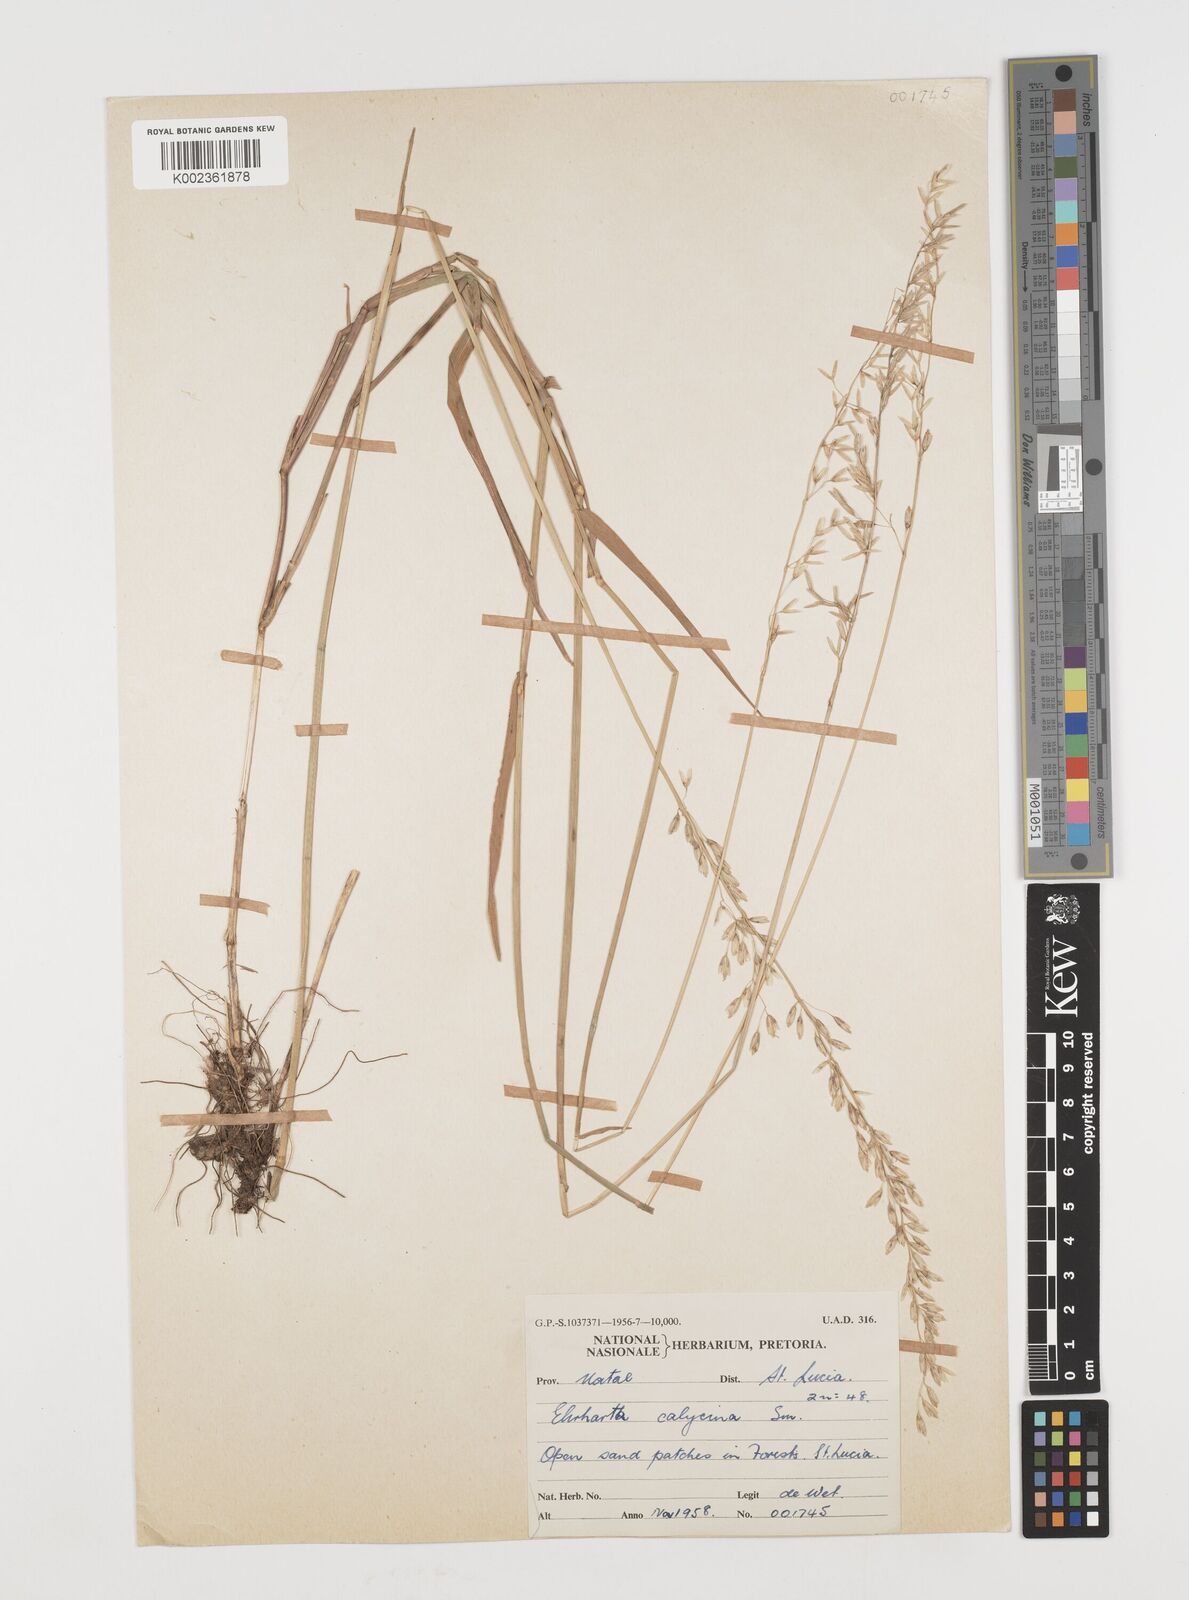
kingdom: Plantae
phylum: Tracheophyta
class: Liliopsida
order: Poales
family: Poaceae
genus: Ehrharta
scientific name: Ehrharta
